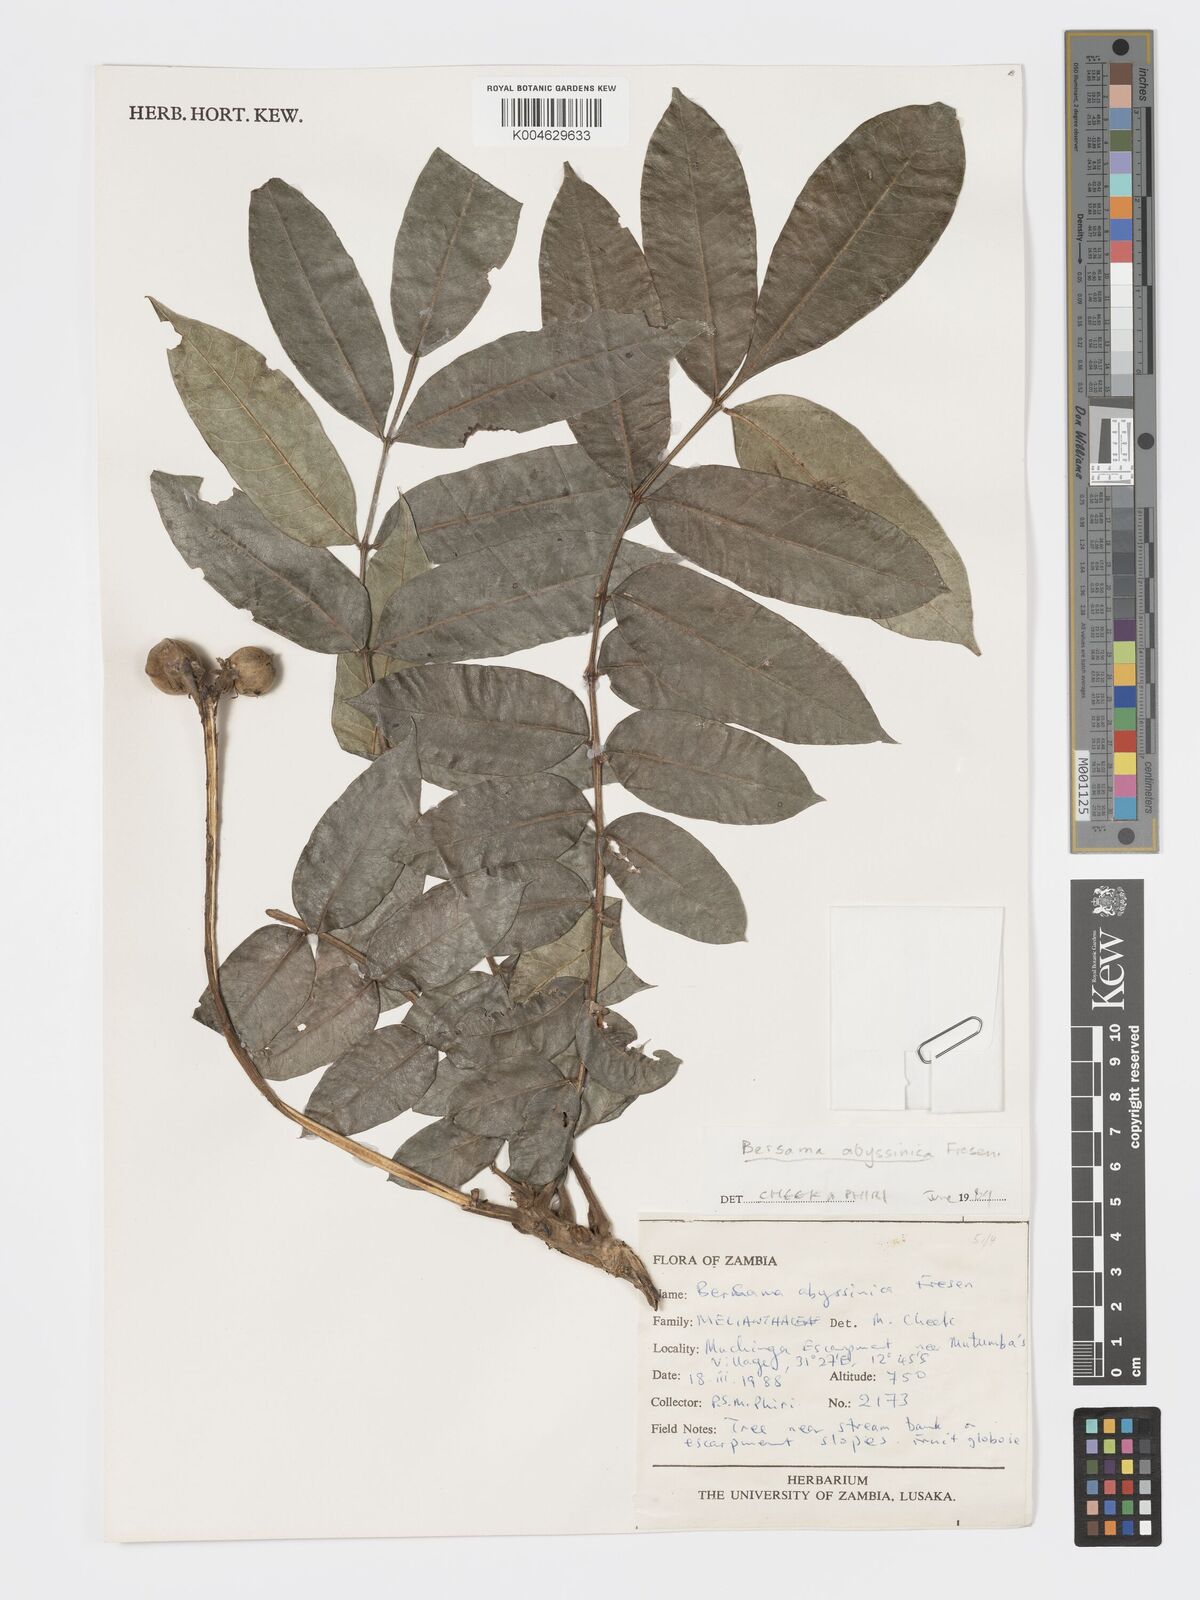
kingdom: Plantae
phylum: Tracheophyta
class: Magnoliopsida
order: Geraniales
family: Melianthaceae
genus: Bersama
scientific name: Bersama abyssinica
